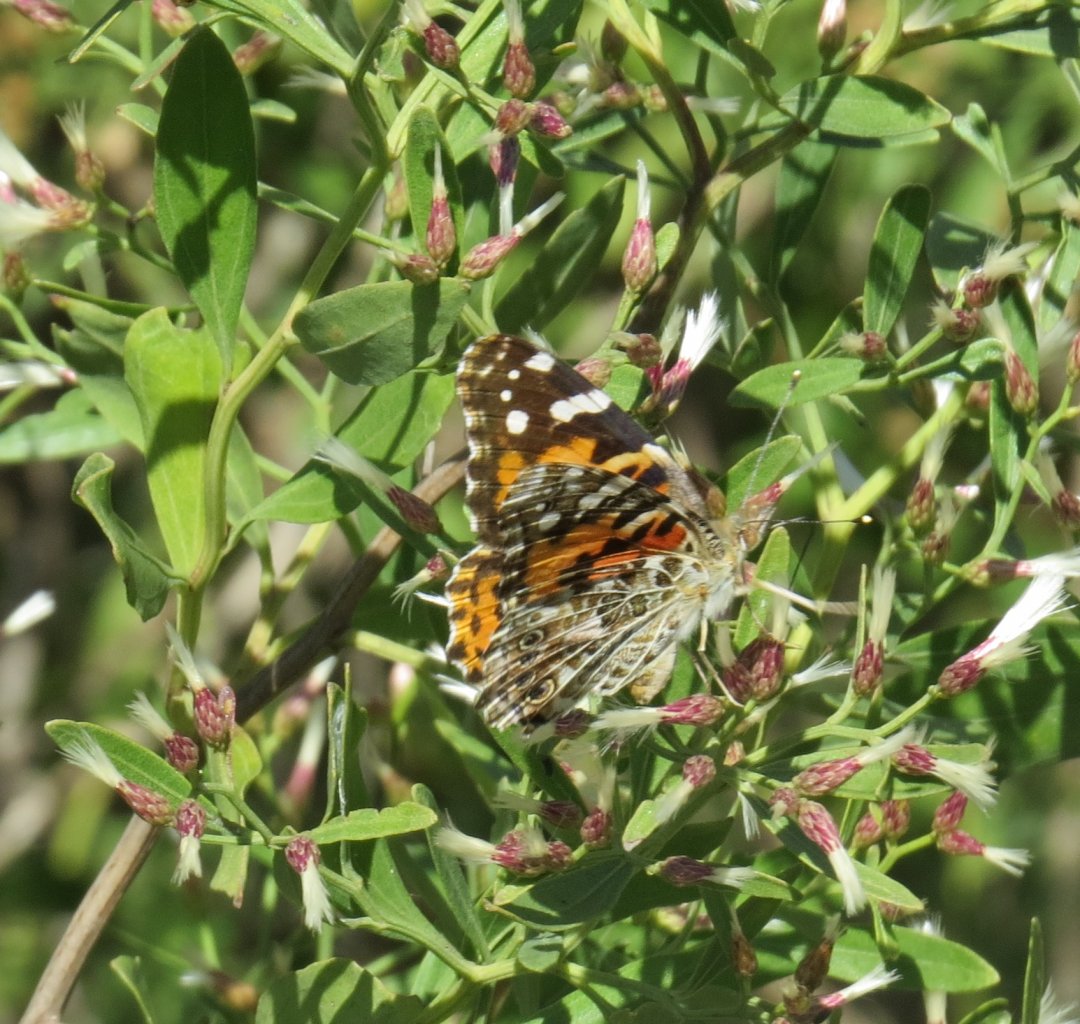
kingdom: Animalia
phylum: Arthropoda
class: Insecta
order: Lepidoptera
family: Nymphalidae
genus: Vanessa
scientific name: Vanessa cardui
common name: Painted Lady
